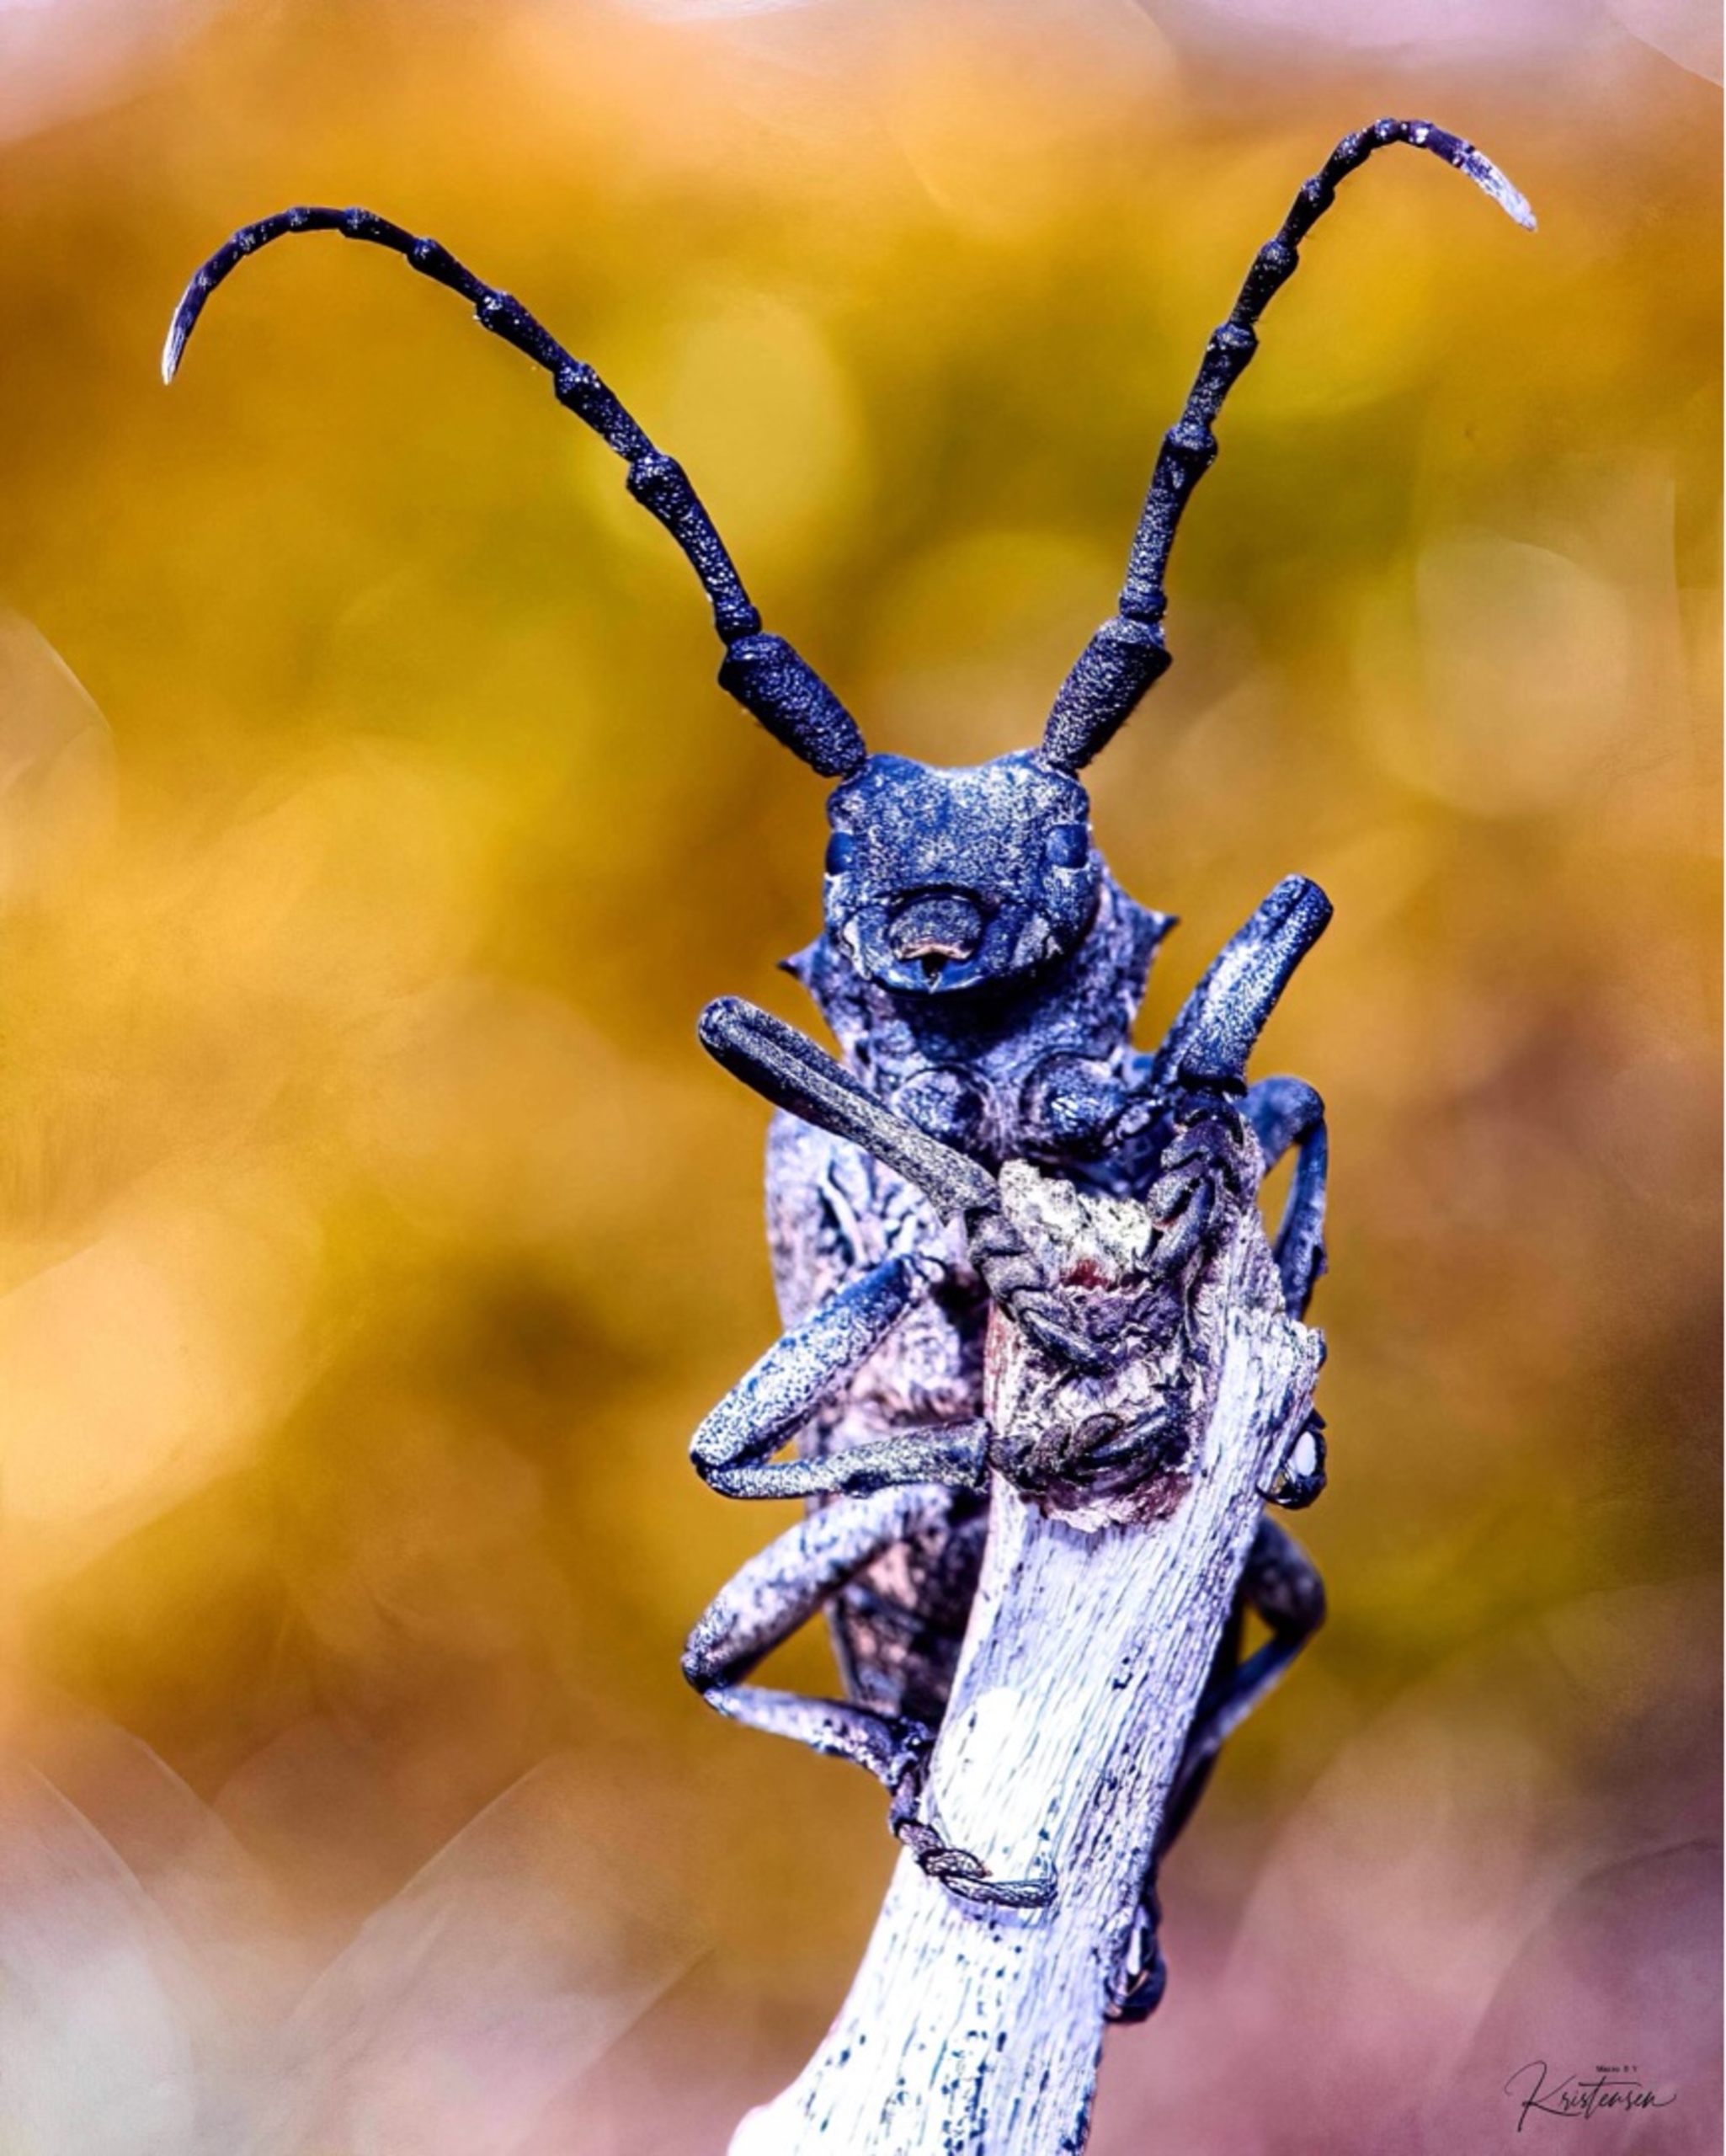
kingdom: Animalia
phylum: Arthropoda
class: Insecta
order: Coleoptera
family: Cerambycidae
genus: Lamia
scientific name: Lamia textor
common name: Væver
